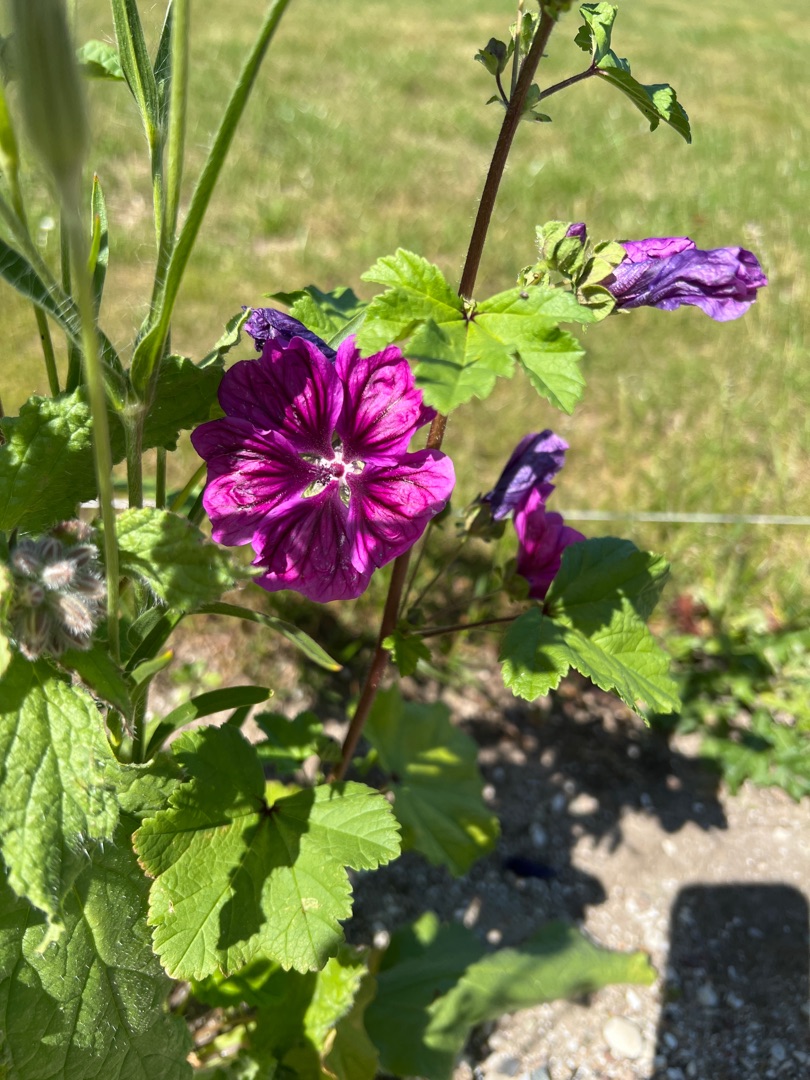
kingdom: Plantae
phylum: Tracheophyta
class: Magnoliopsida
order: Malvales
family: Malvaceae
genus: Malva
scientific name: Malva sylvestris
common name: Stor katost
